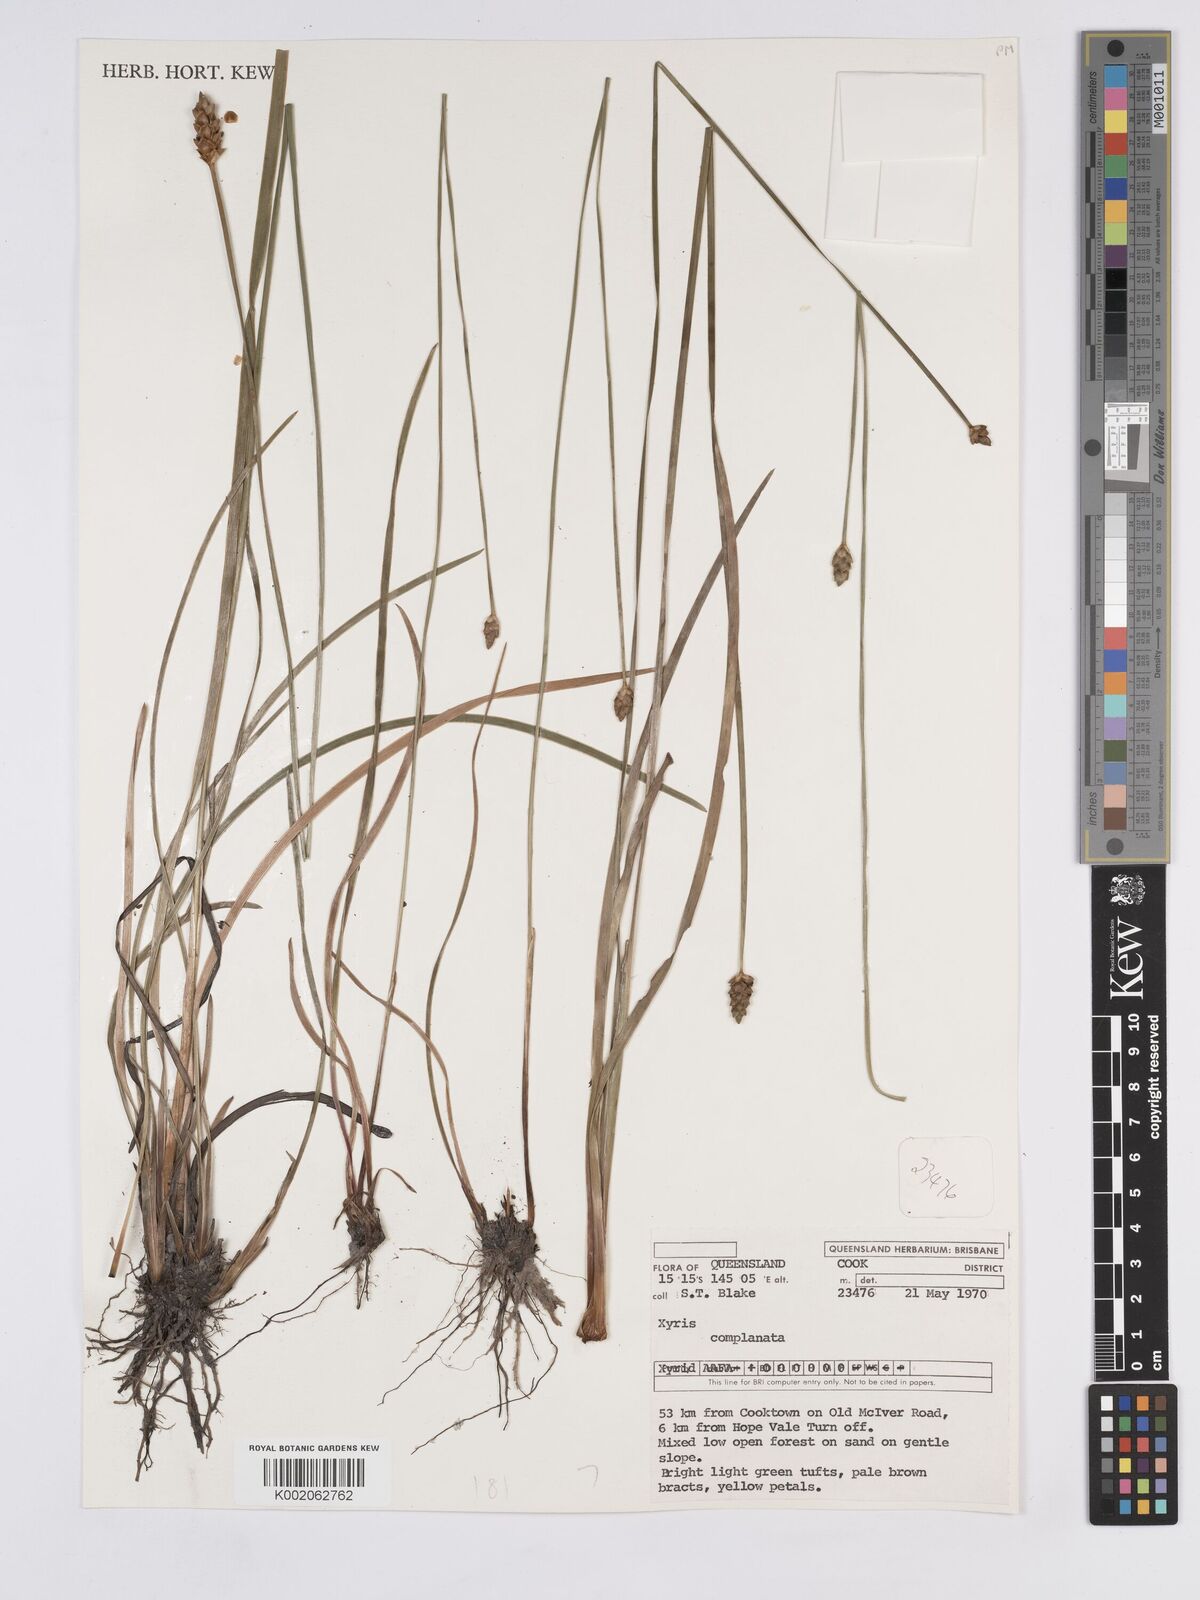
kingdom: Plantae
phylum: Tracheophyta
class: Liliopsida
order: Poales
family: Xyridaceae
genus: Xyris
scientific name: Xyris complanata
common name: Hawai'i yelloweyed grass
